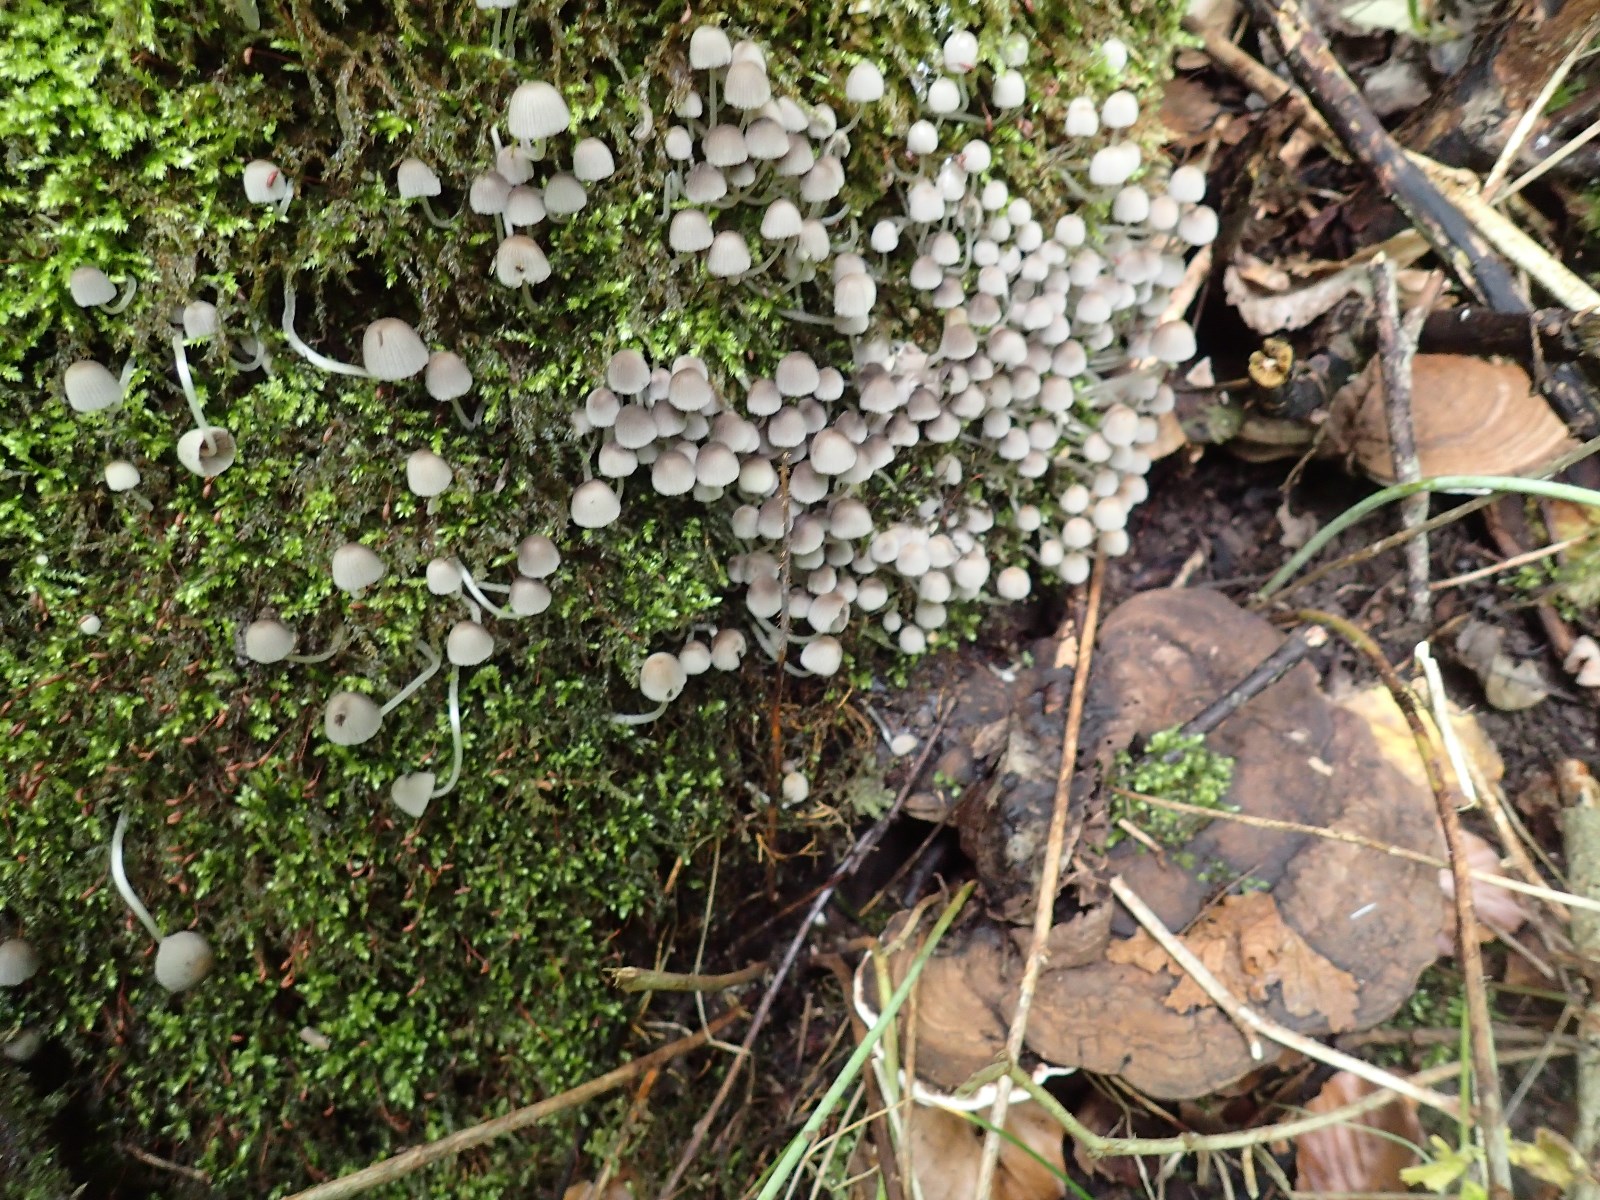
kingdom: Fungi
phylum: Basidiomycota
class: Agaricomycetes
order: Polyporales
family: Polyporaceae
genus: Ganoderma
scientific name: Ganoderma applanatum
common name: flad lakporesvamp
